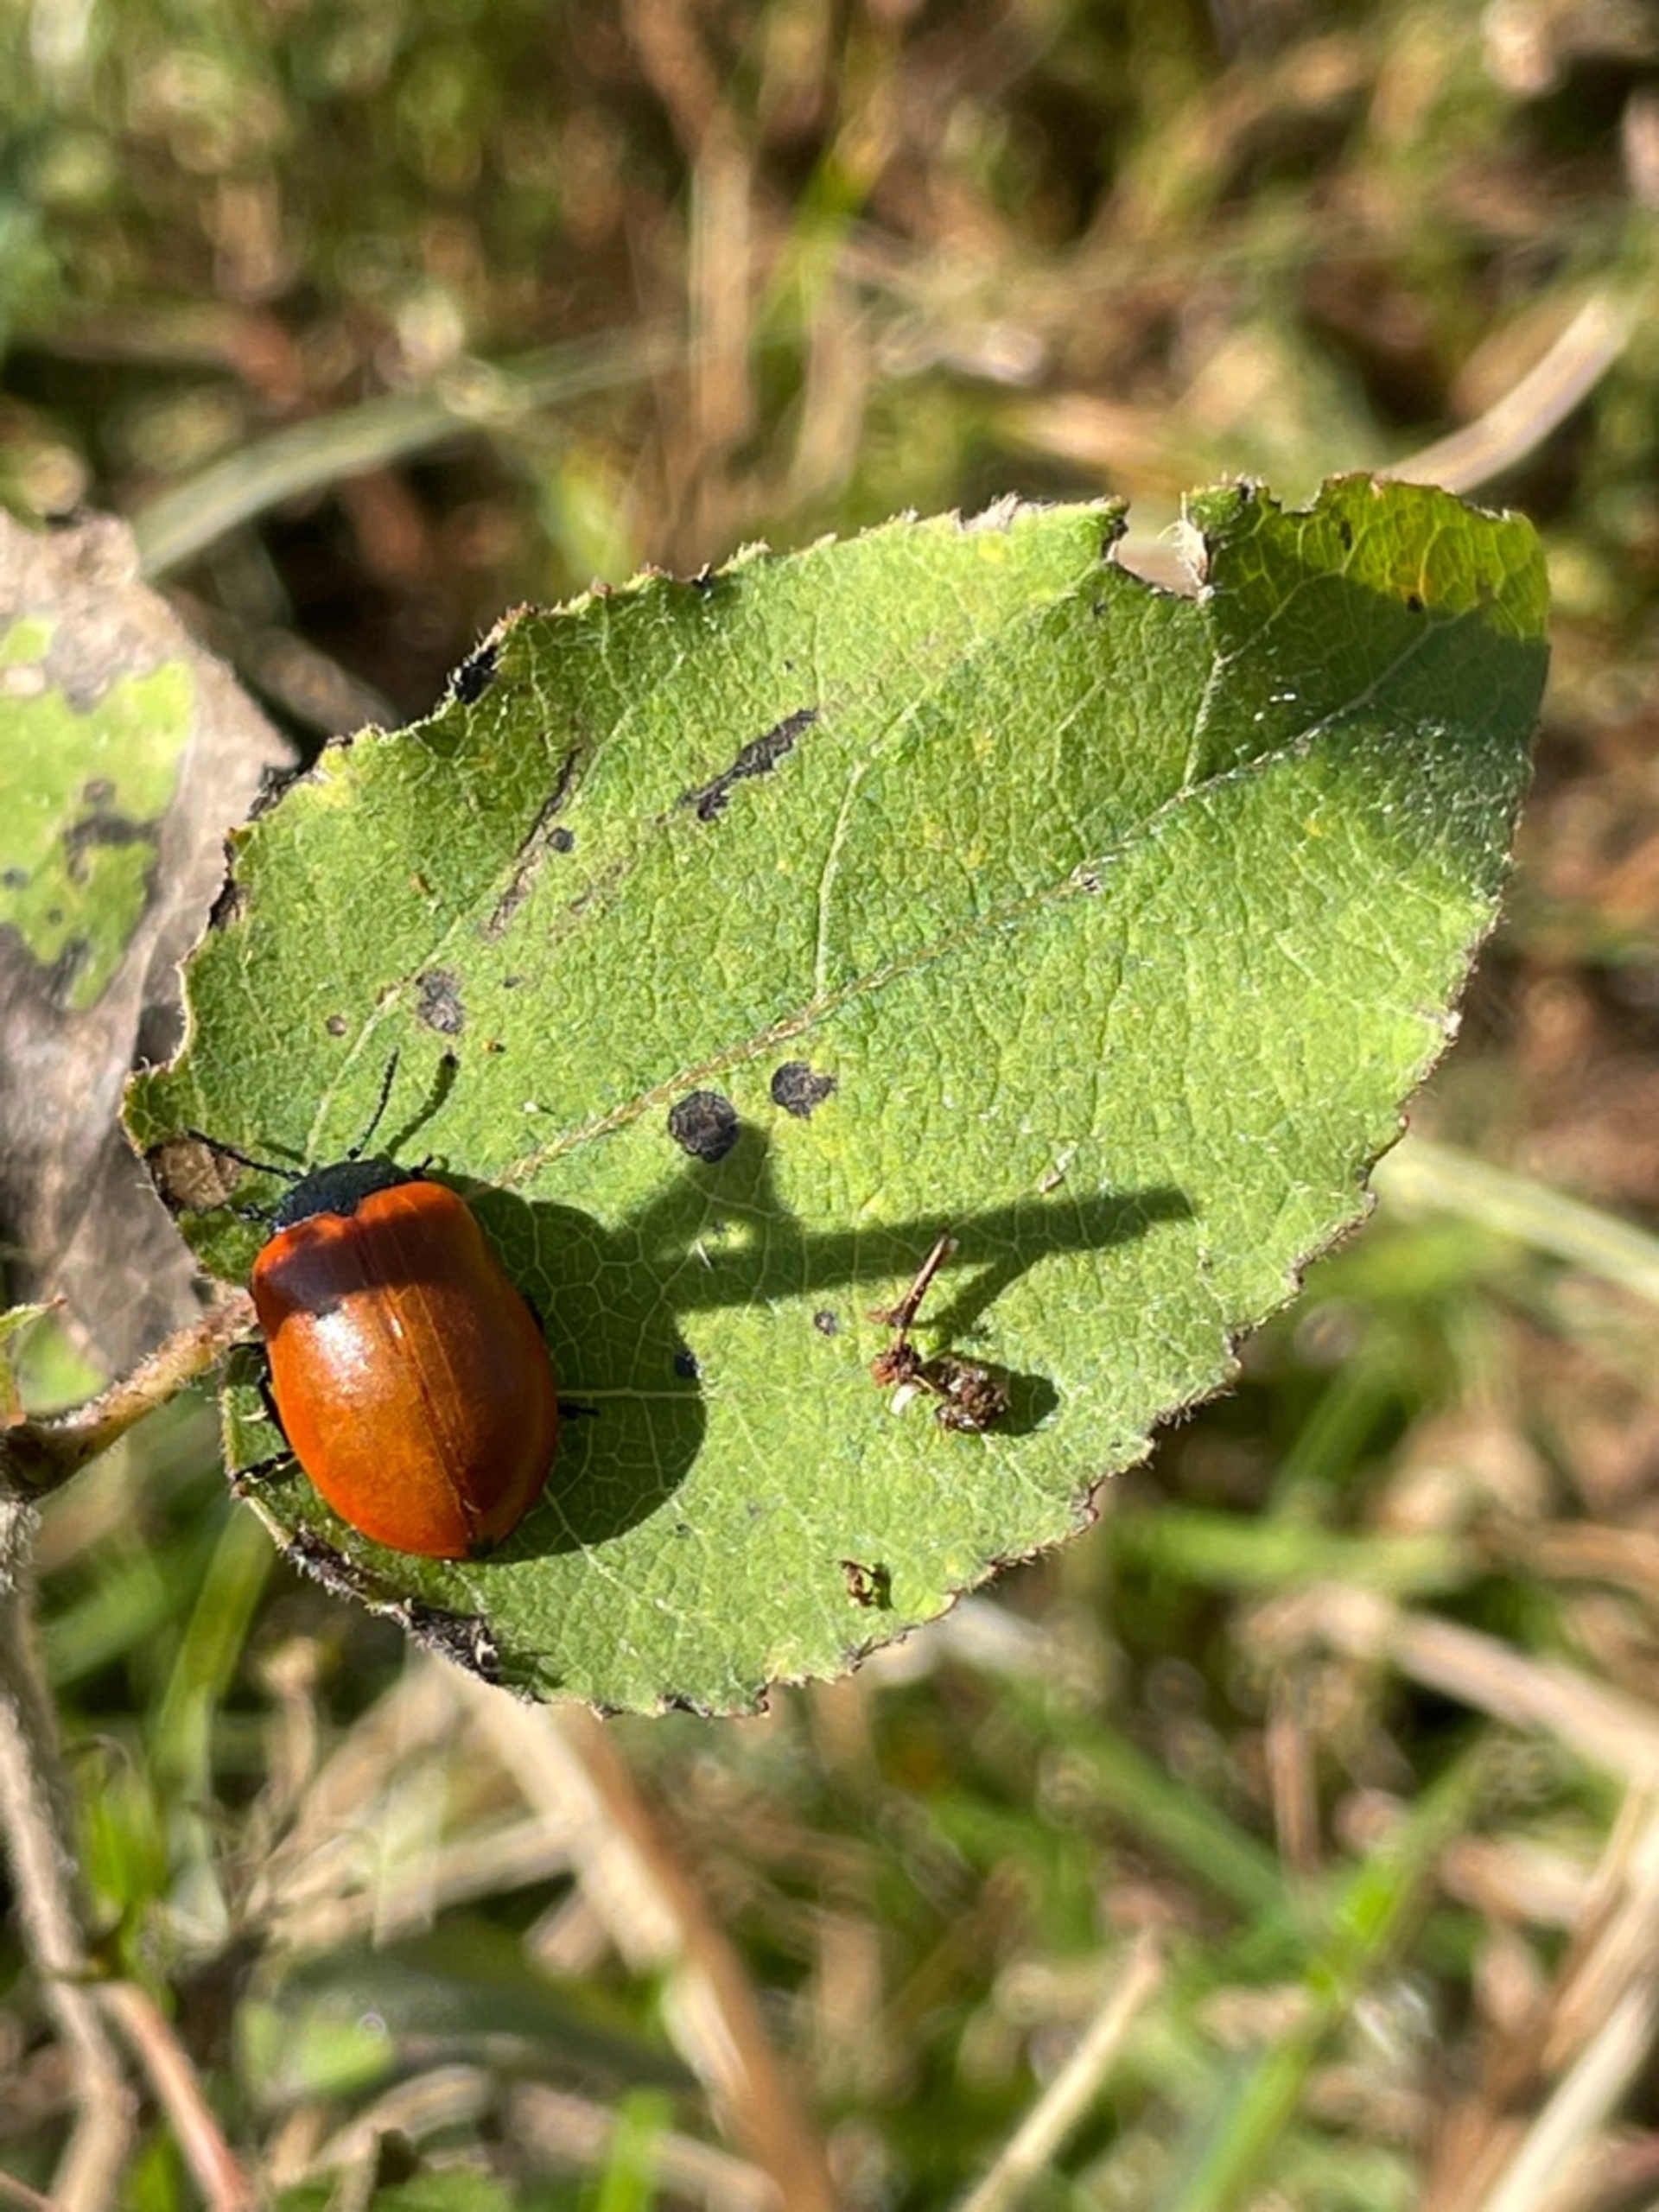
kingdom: Animalia
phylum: Arthropoda
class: Insecta
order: Coleoptera
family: Chrysomelidae
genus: Chrysomela
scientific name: Chrysomela populi
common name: Poppelbladbille
